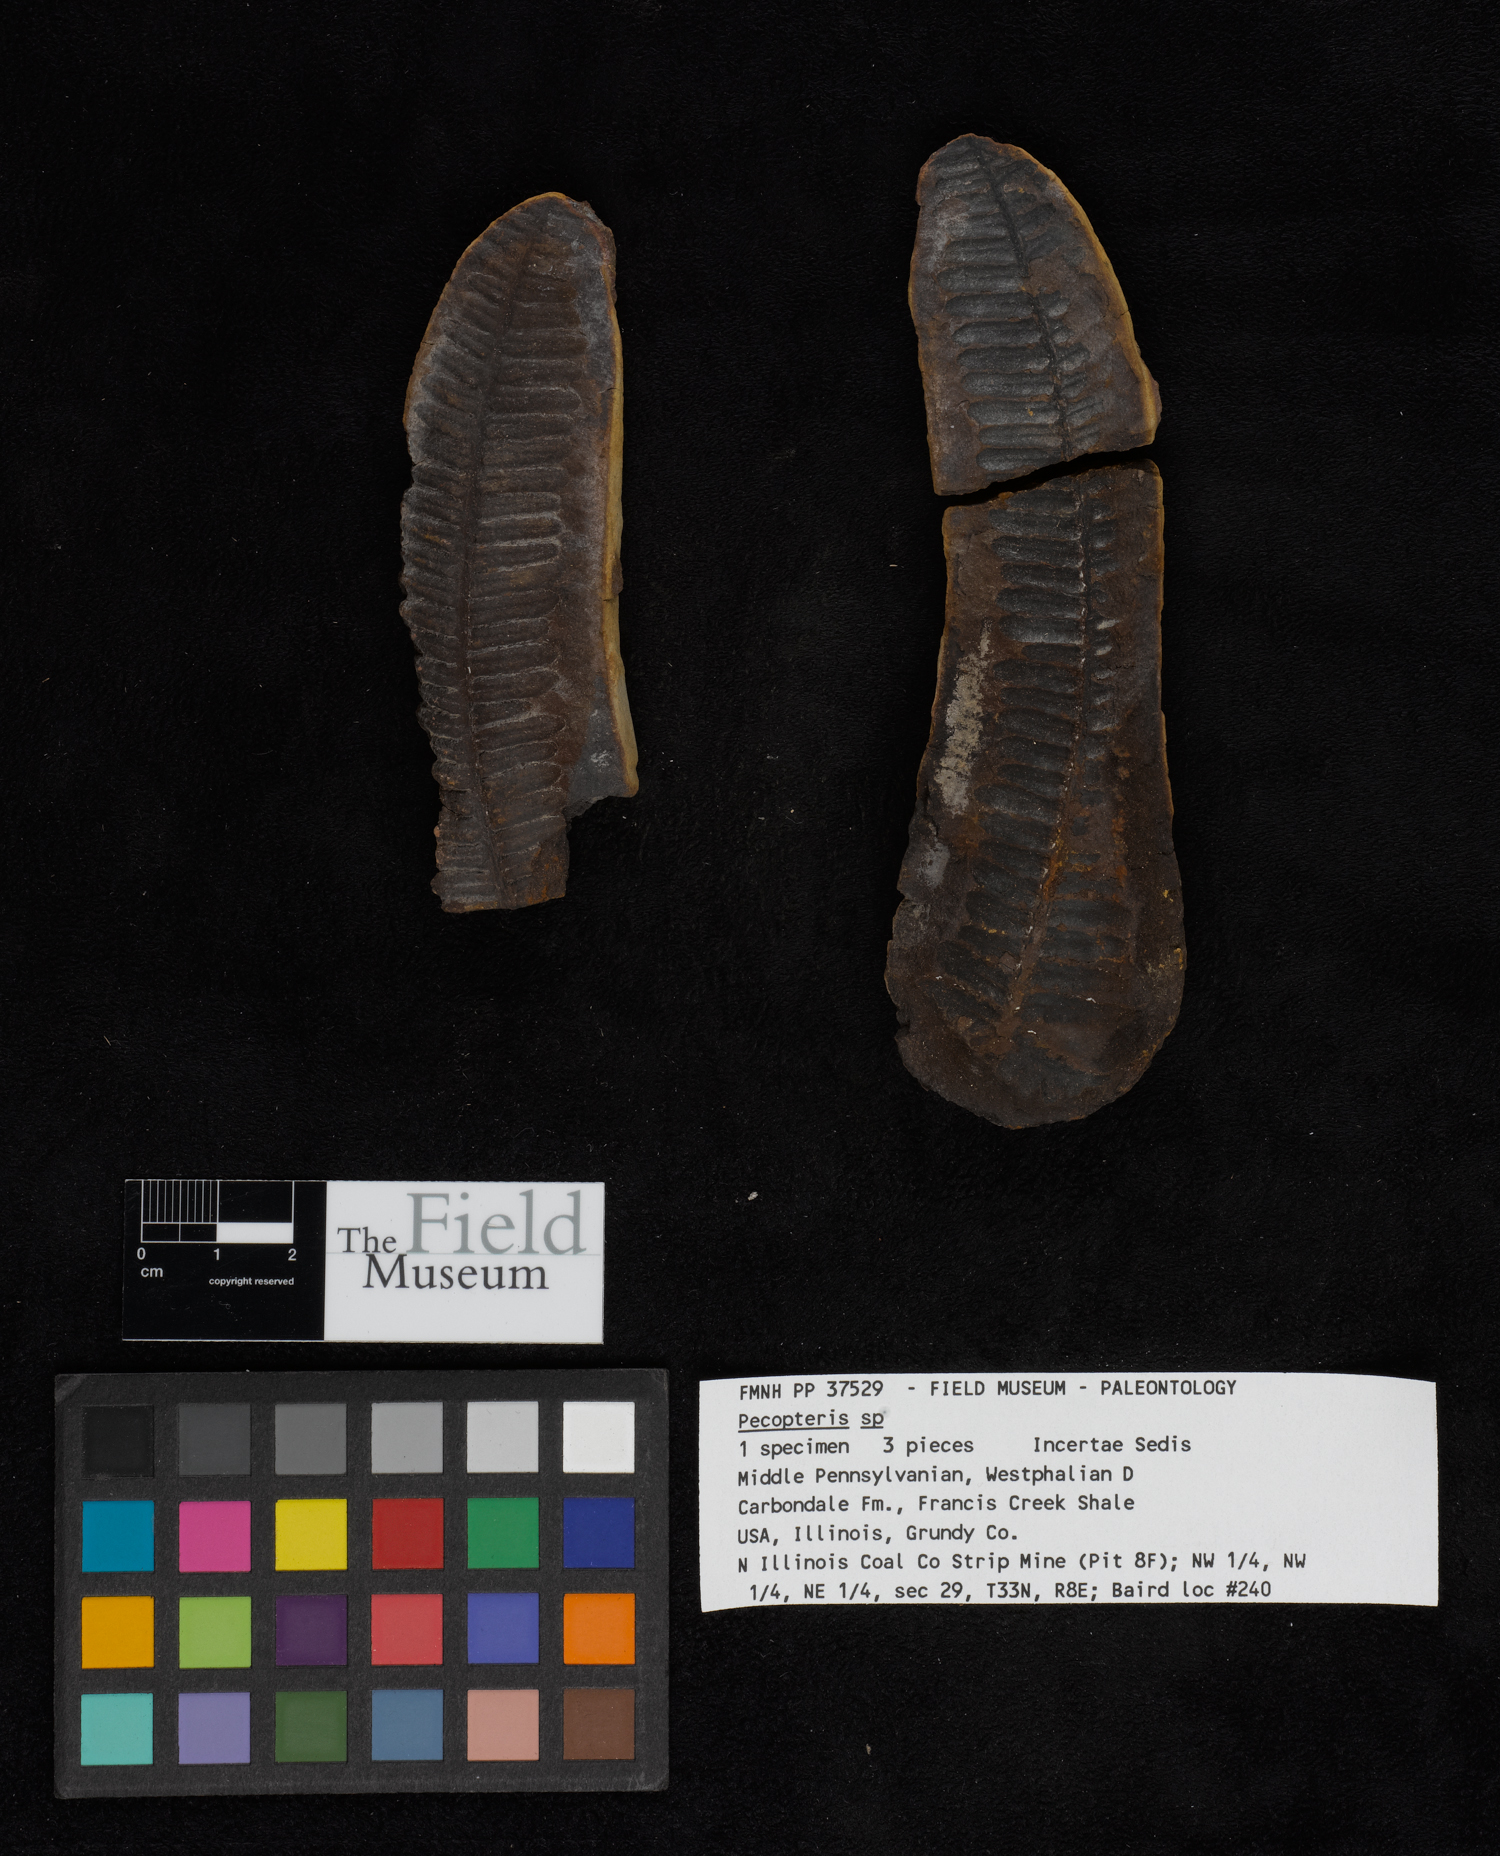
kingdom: Plantae
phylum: Tracheophyta
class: Polypodiopsida
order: Marattiales
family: Asterothecaceae
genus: Pecopteris
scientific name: Pecopteris
